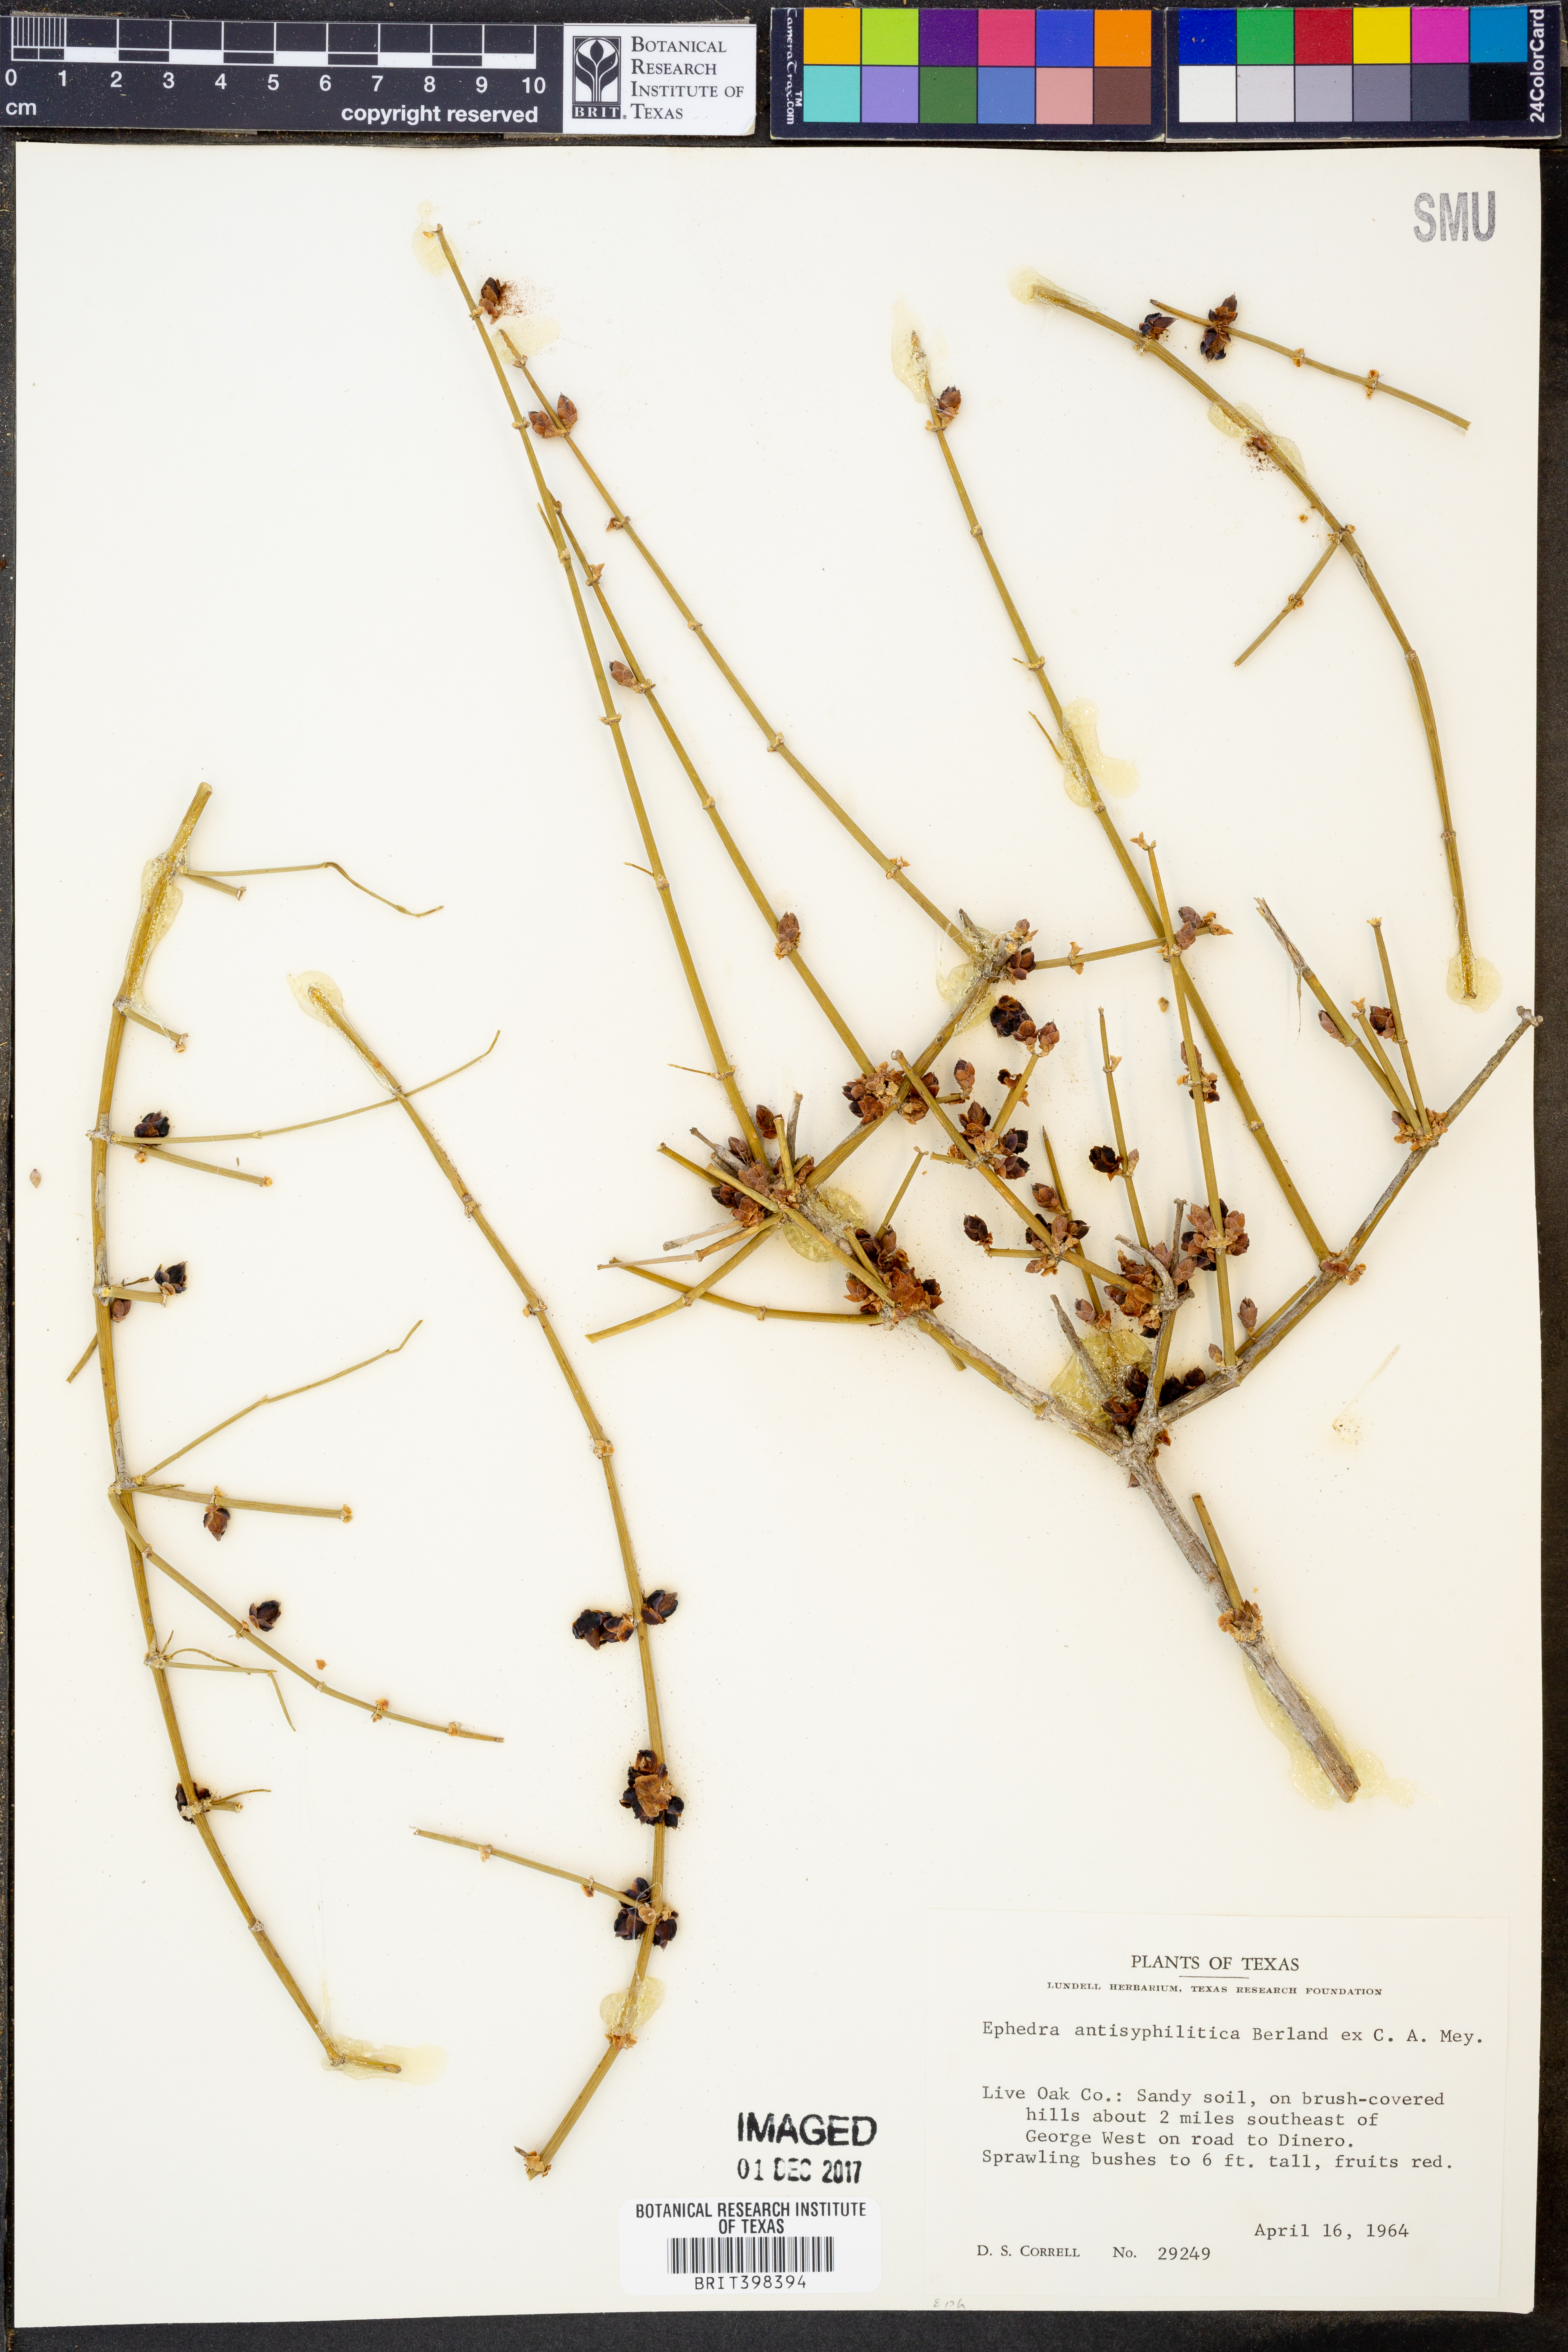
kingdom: Plantae
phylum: Tracheophyta
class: Gnetopsida
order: Ephedrales
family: Ephedraceae
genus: Ephedra
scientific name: Ephedra antisyphilitica
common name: Clipweed
